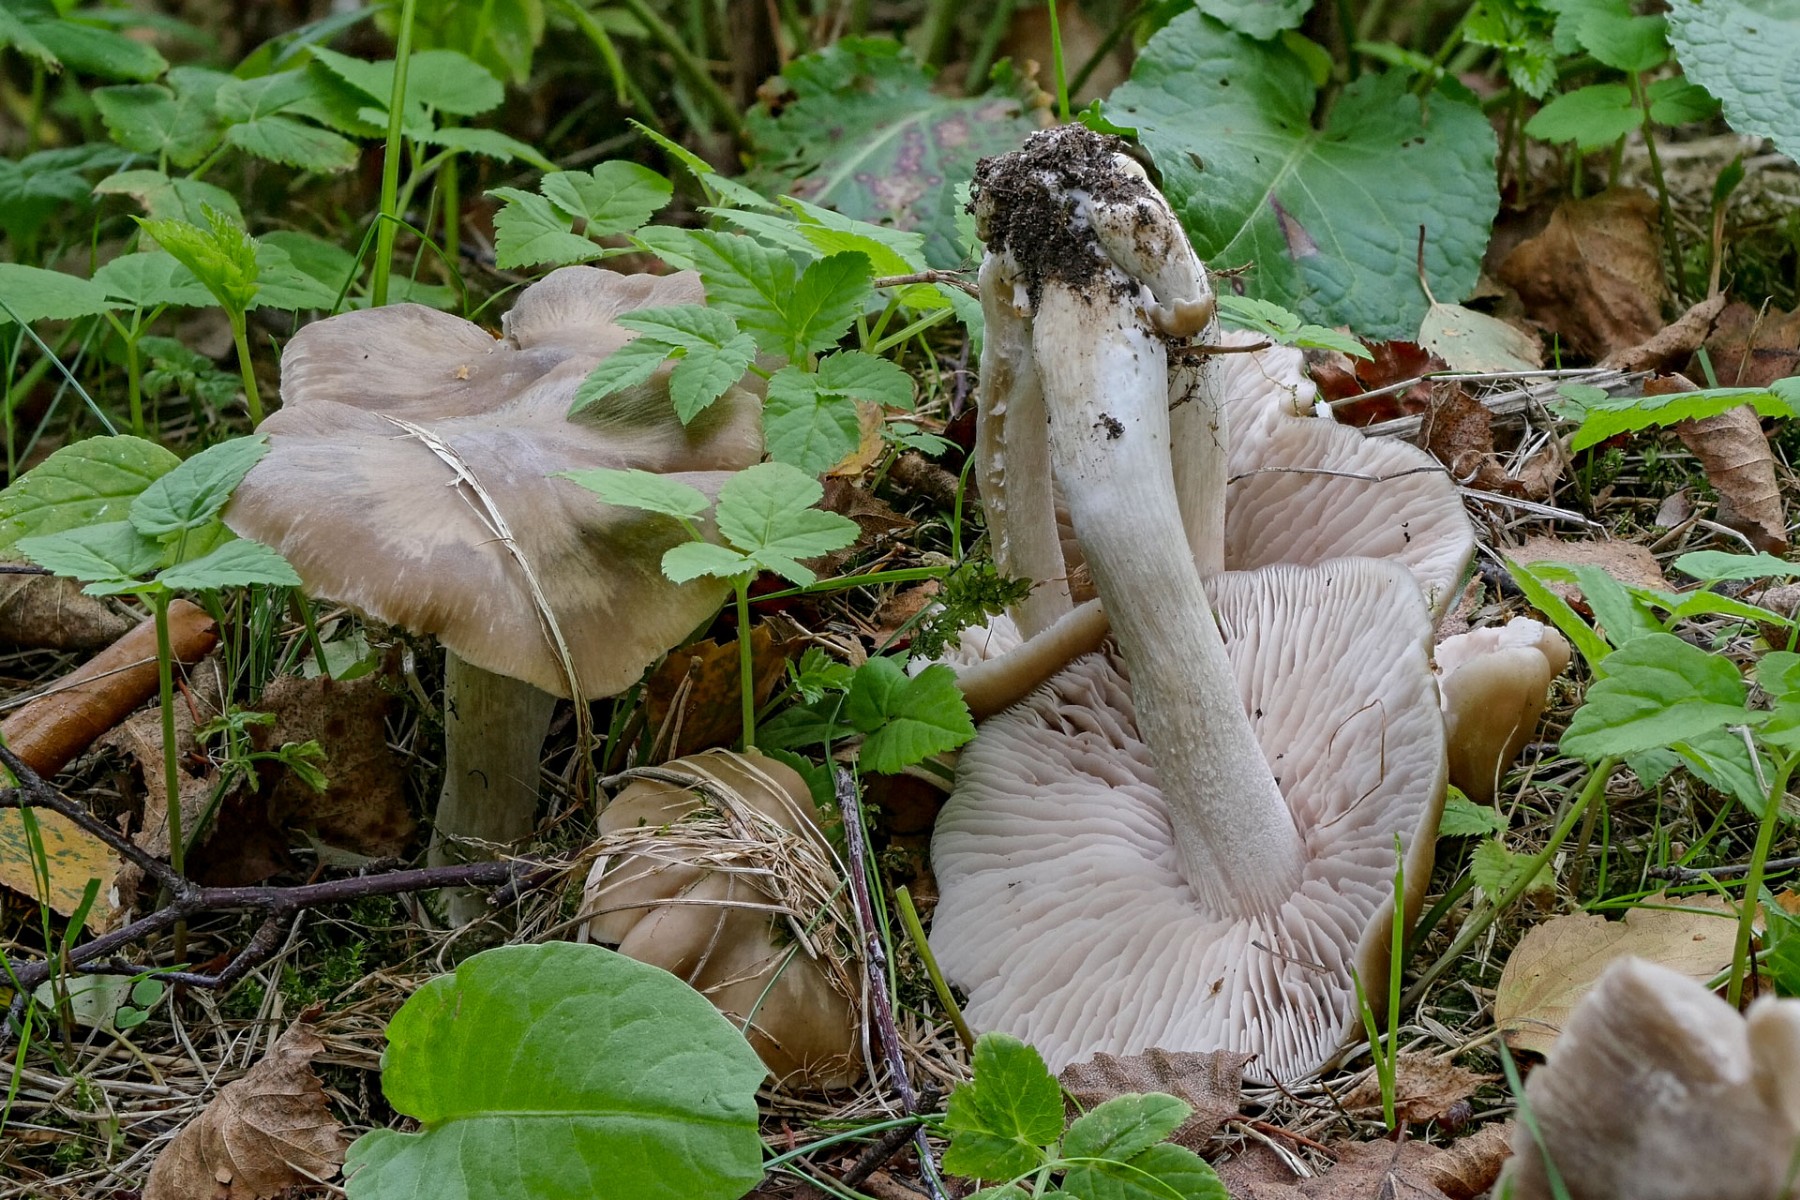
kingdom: Fungi
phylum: Basidiomycota
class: Agaricomycetes
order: Agaricales
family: Entolomataceae
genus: Entoloma
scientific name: Entoloma lividoalbum
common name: lysstokket rødblad
